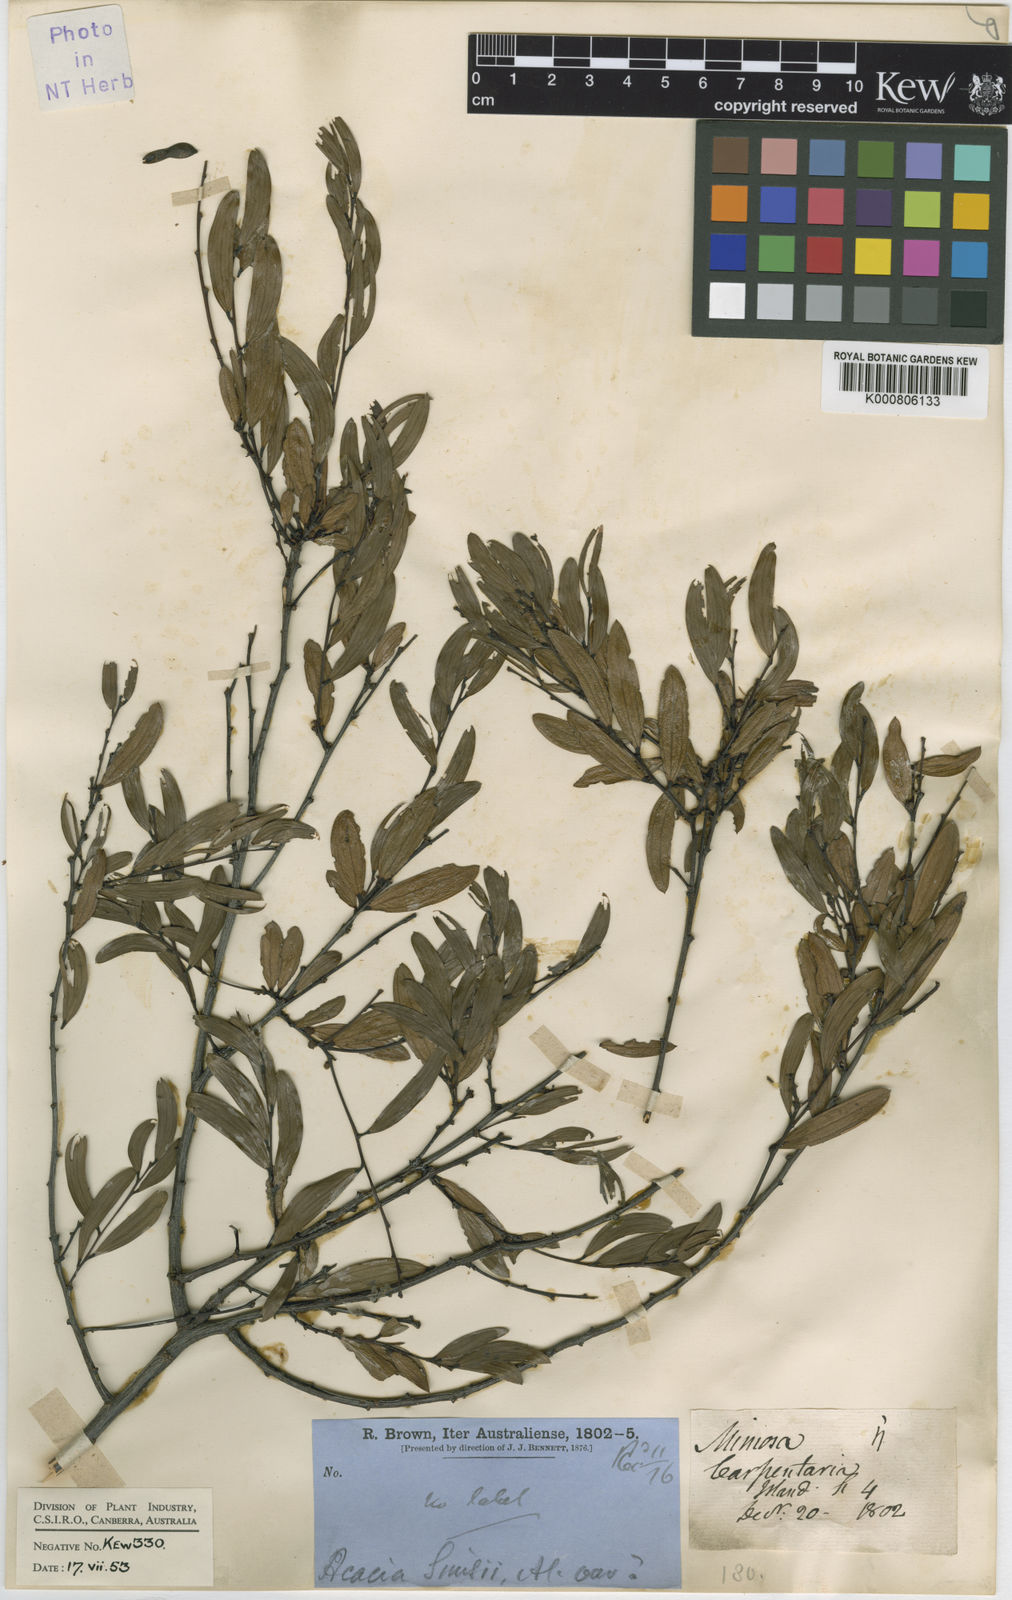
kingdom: Plantae
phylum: Tracheophyta
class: Magnoliopsida
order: Fabales
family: Fabaceae
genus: Acacia
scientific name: Acacia multisiliqua
